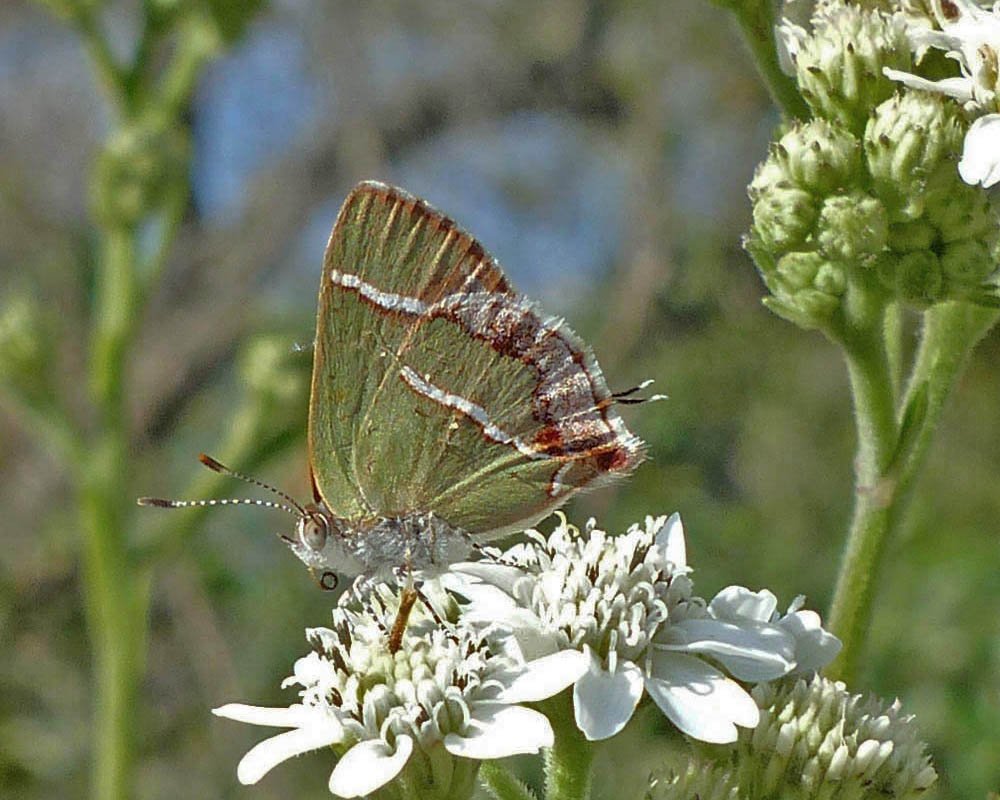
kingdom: Animalia
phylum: Arthropoda
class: Insecta
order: Lepidoptera
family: Lycaenidae
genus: Chlorostrymon
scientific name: Chlorostrymon simaethis
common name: Silver-banded Hairstreak
